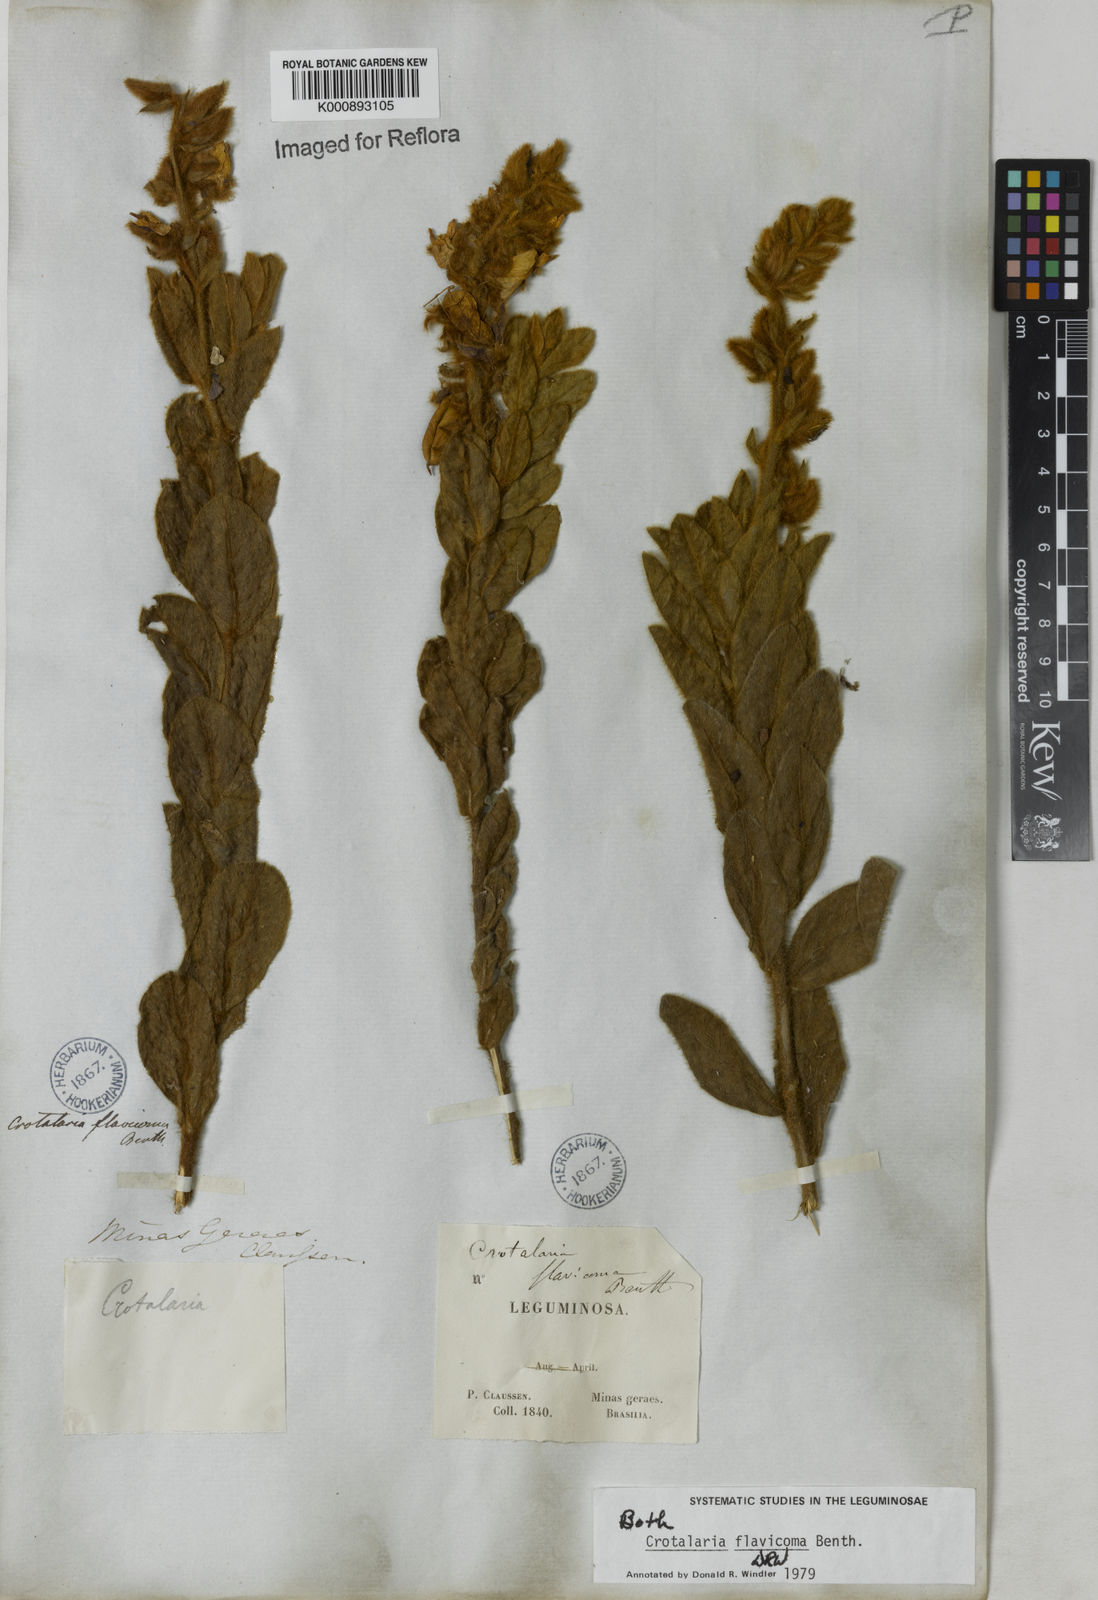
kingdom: Plantae
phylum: Tracheophyta
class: Magnoliopsida
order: Fabales
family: Fabaceae
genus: Crotalaria
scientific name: Crotalaria flavicoma
